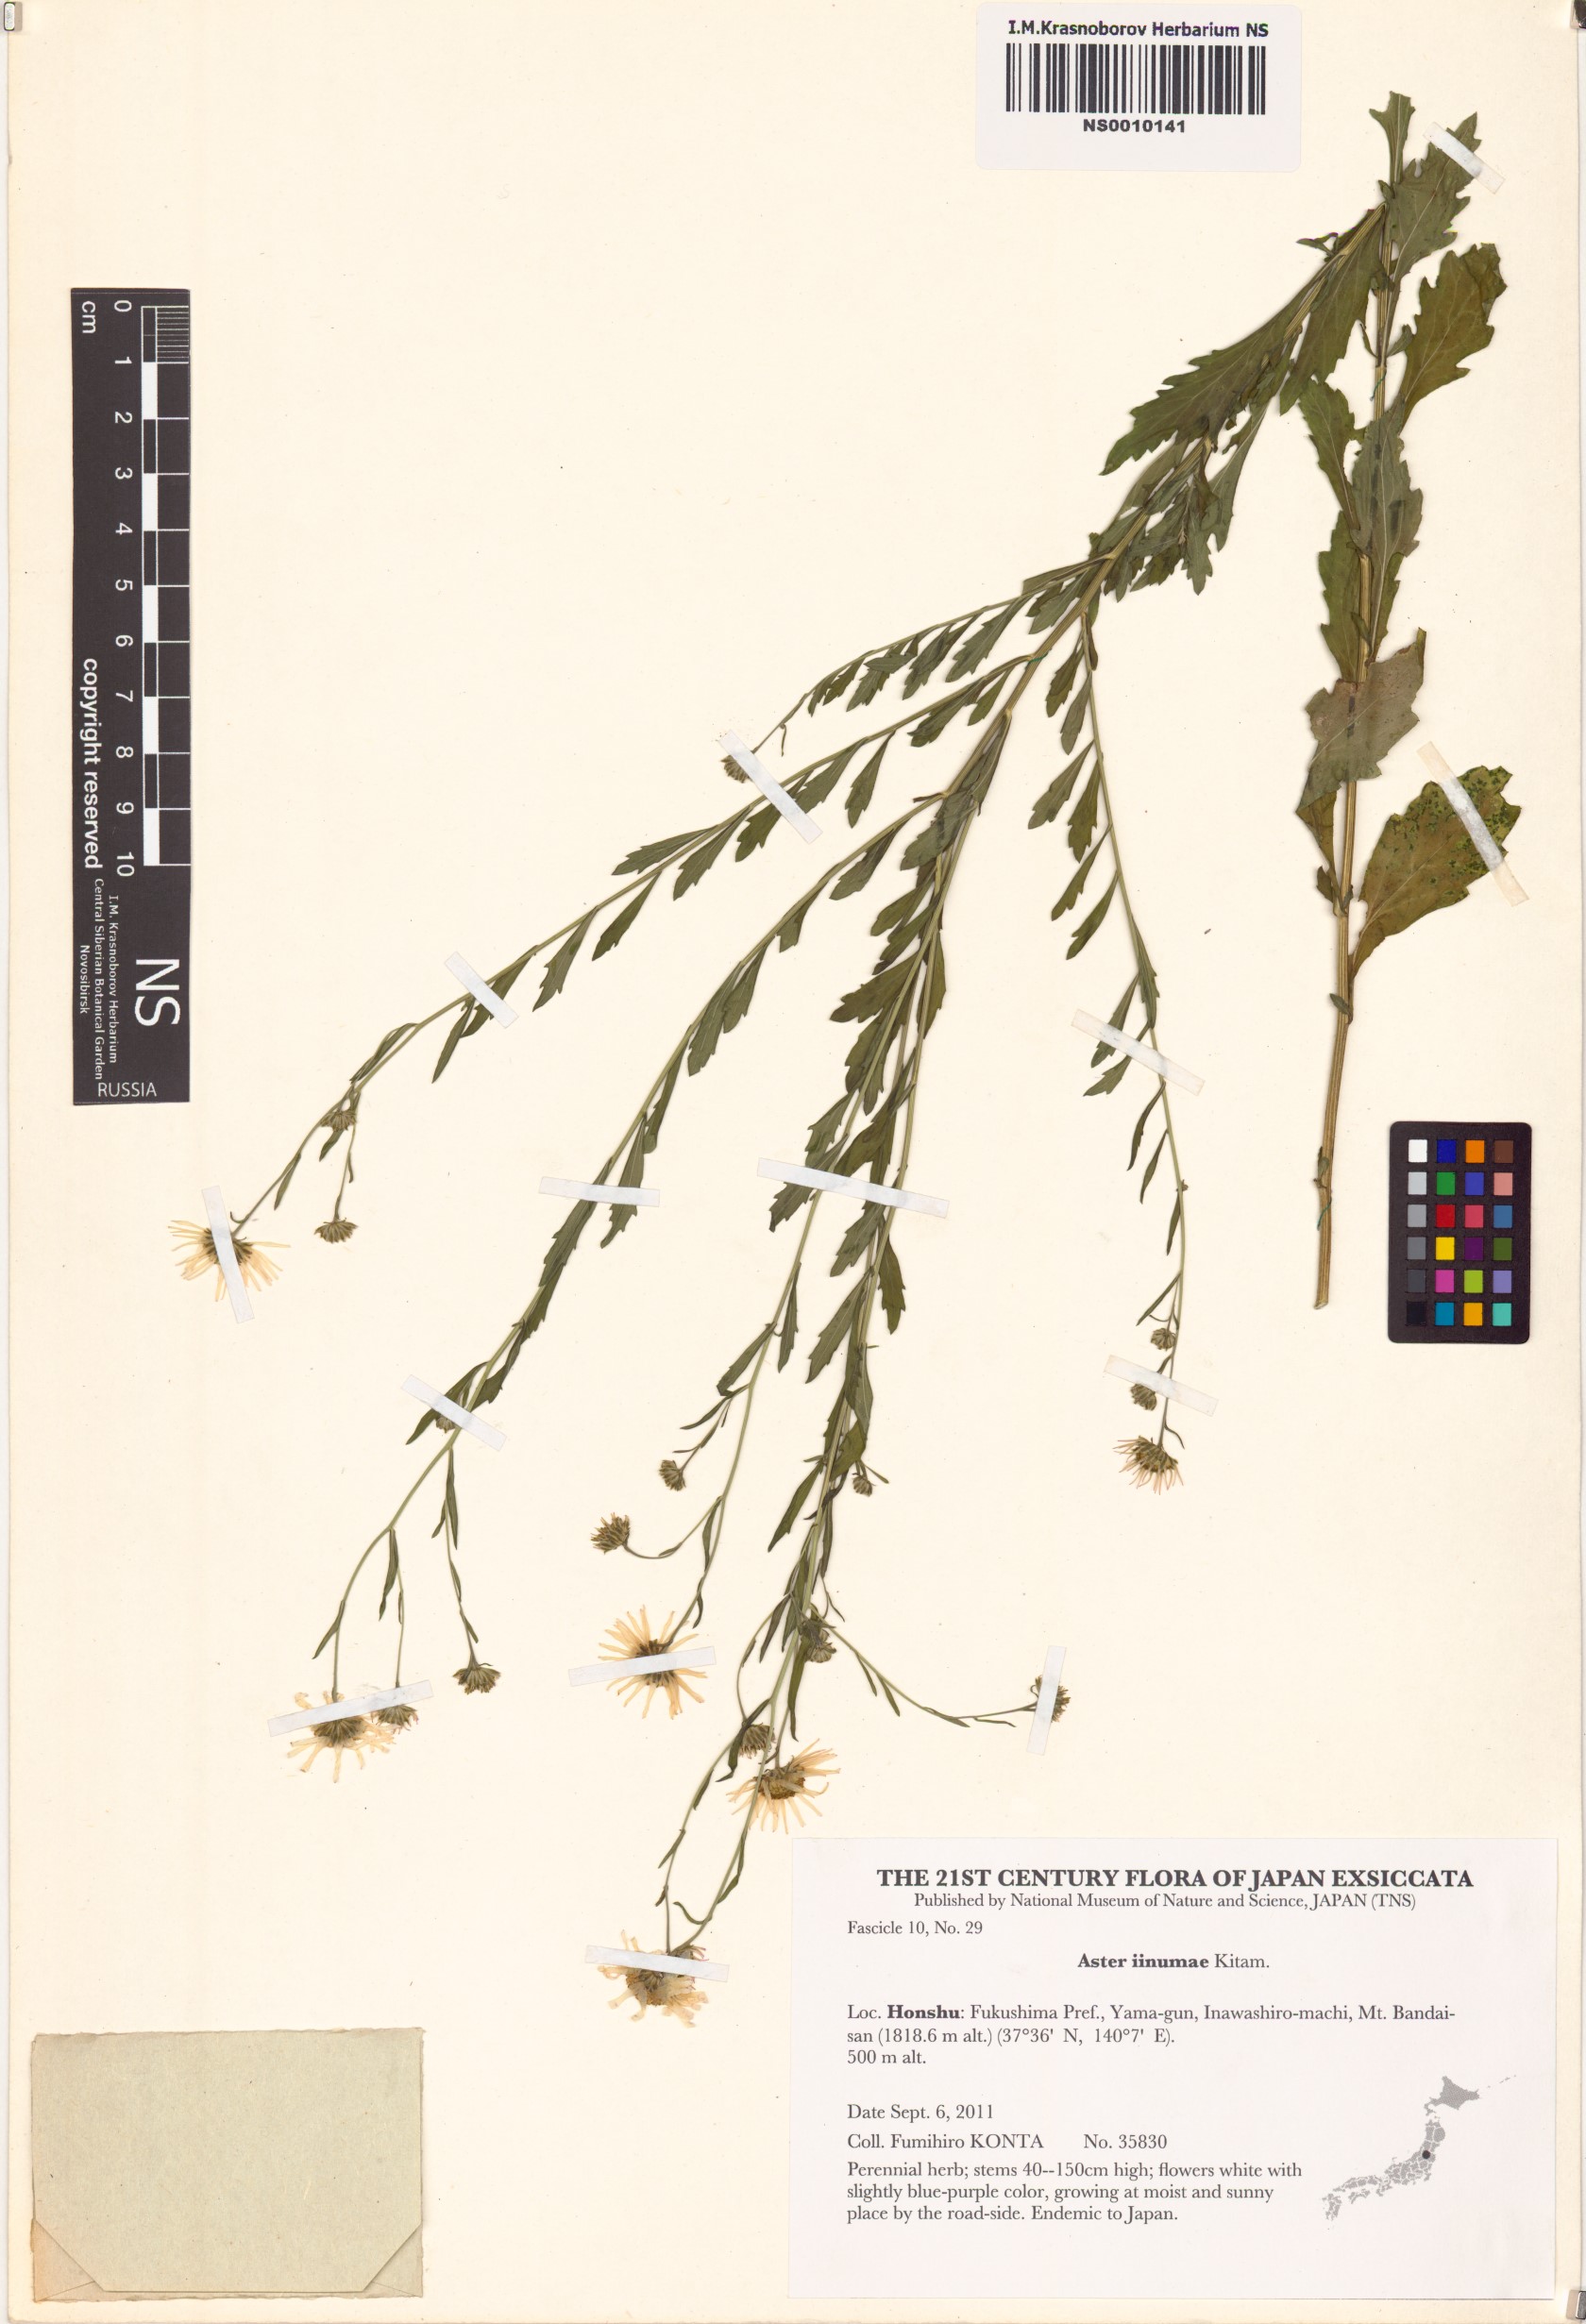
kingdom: Plantae
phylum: Tracheophyta
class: Magnoliopsida
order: Asterales
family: Asteraceae
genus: Kalimeris
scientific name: Kalimeris pinnatifida
